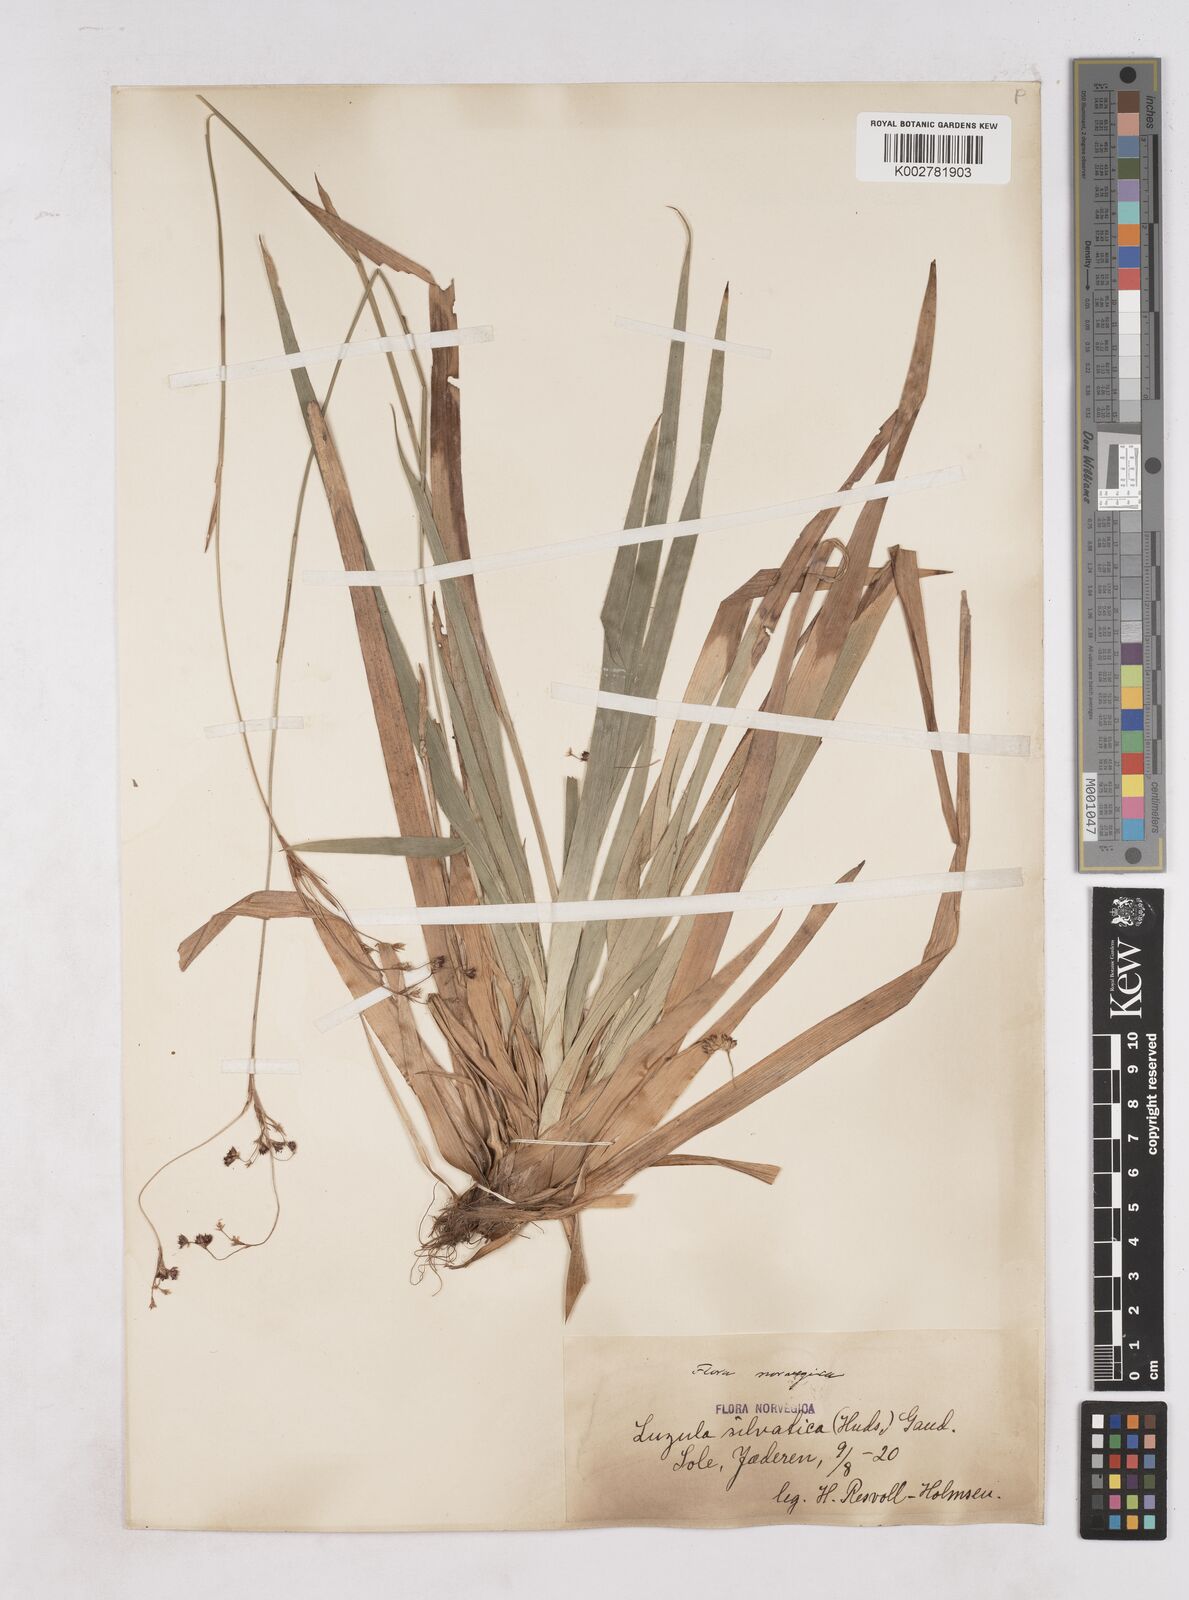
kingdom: Plantae
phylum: Tracheophyta
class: Liliopsida
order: Poales
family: Juncaceae
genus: Luzula
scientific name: Luzula sylvatica
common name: Great wood-rush
